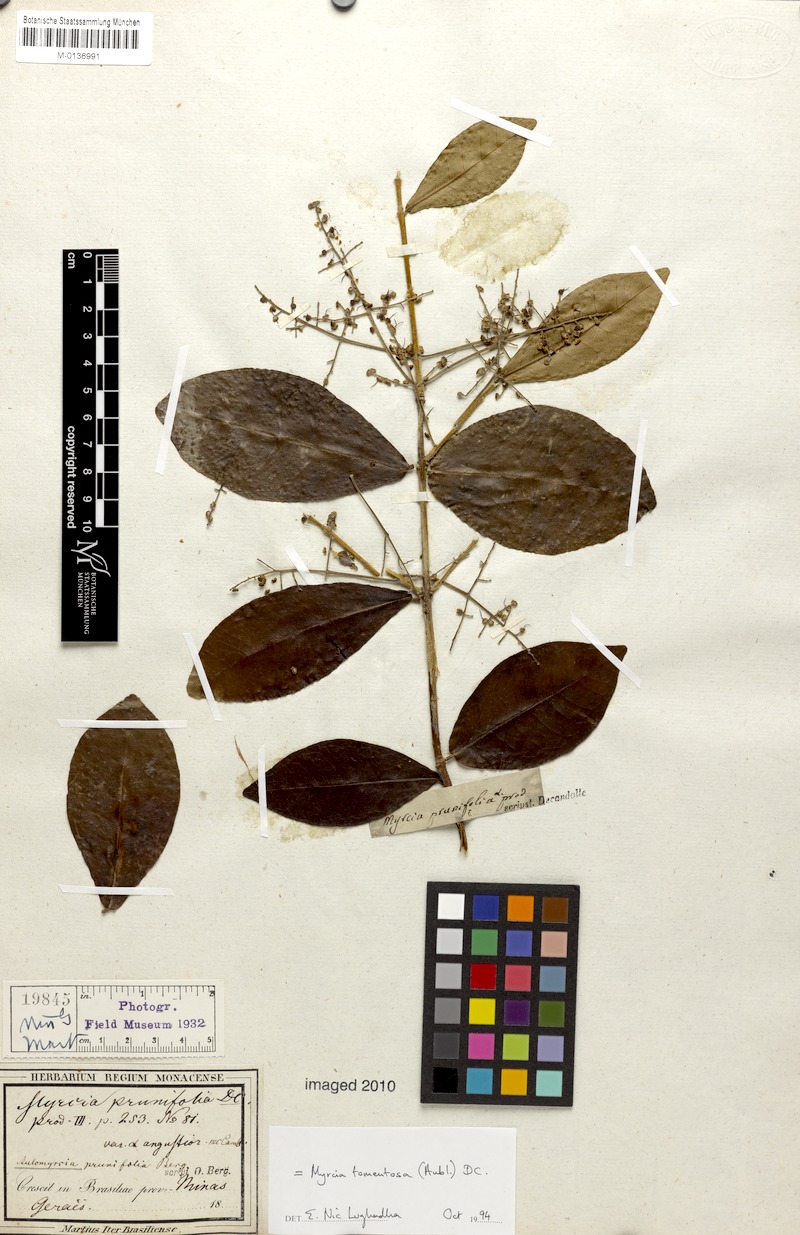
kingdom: Plantae
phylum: Tracheophyta
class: Magnoliopsida
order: Myrtales
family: Myrtaceae
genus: Myrcia
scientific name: Myrcia tomentosa
